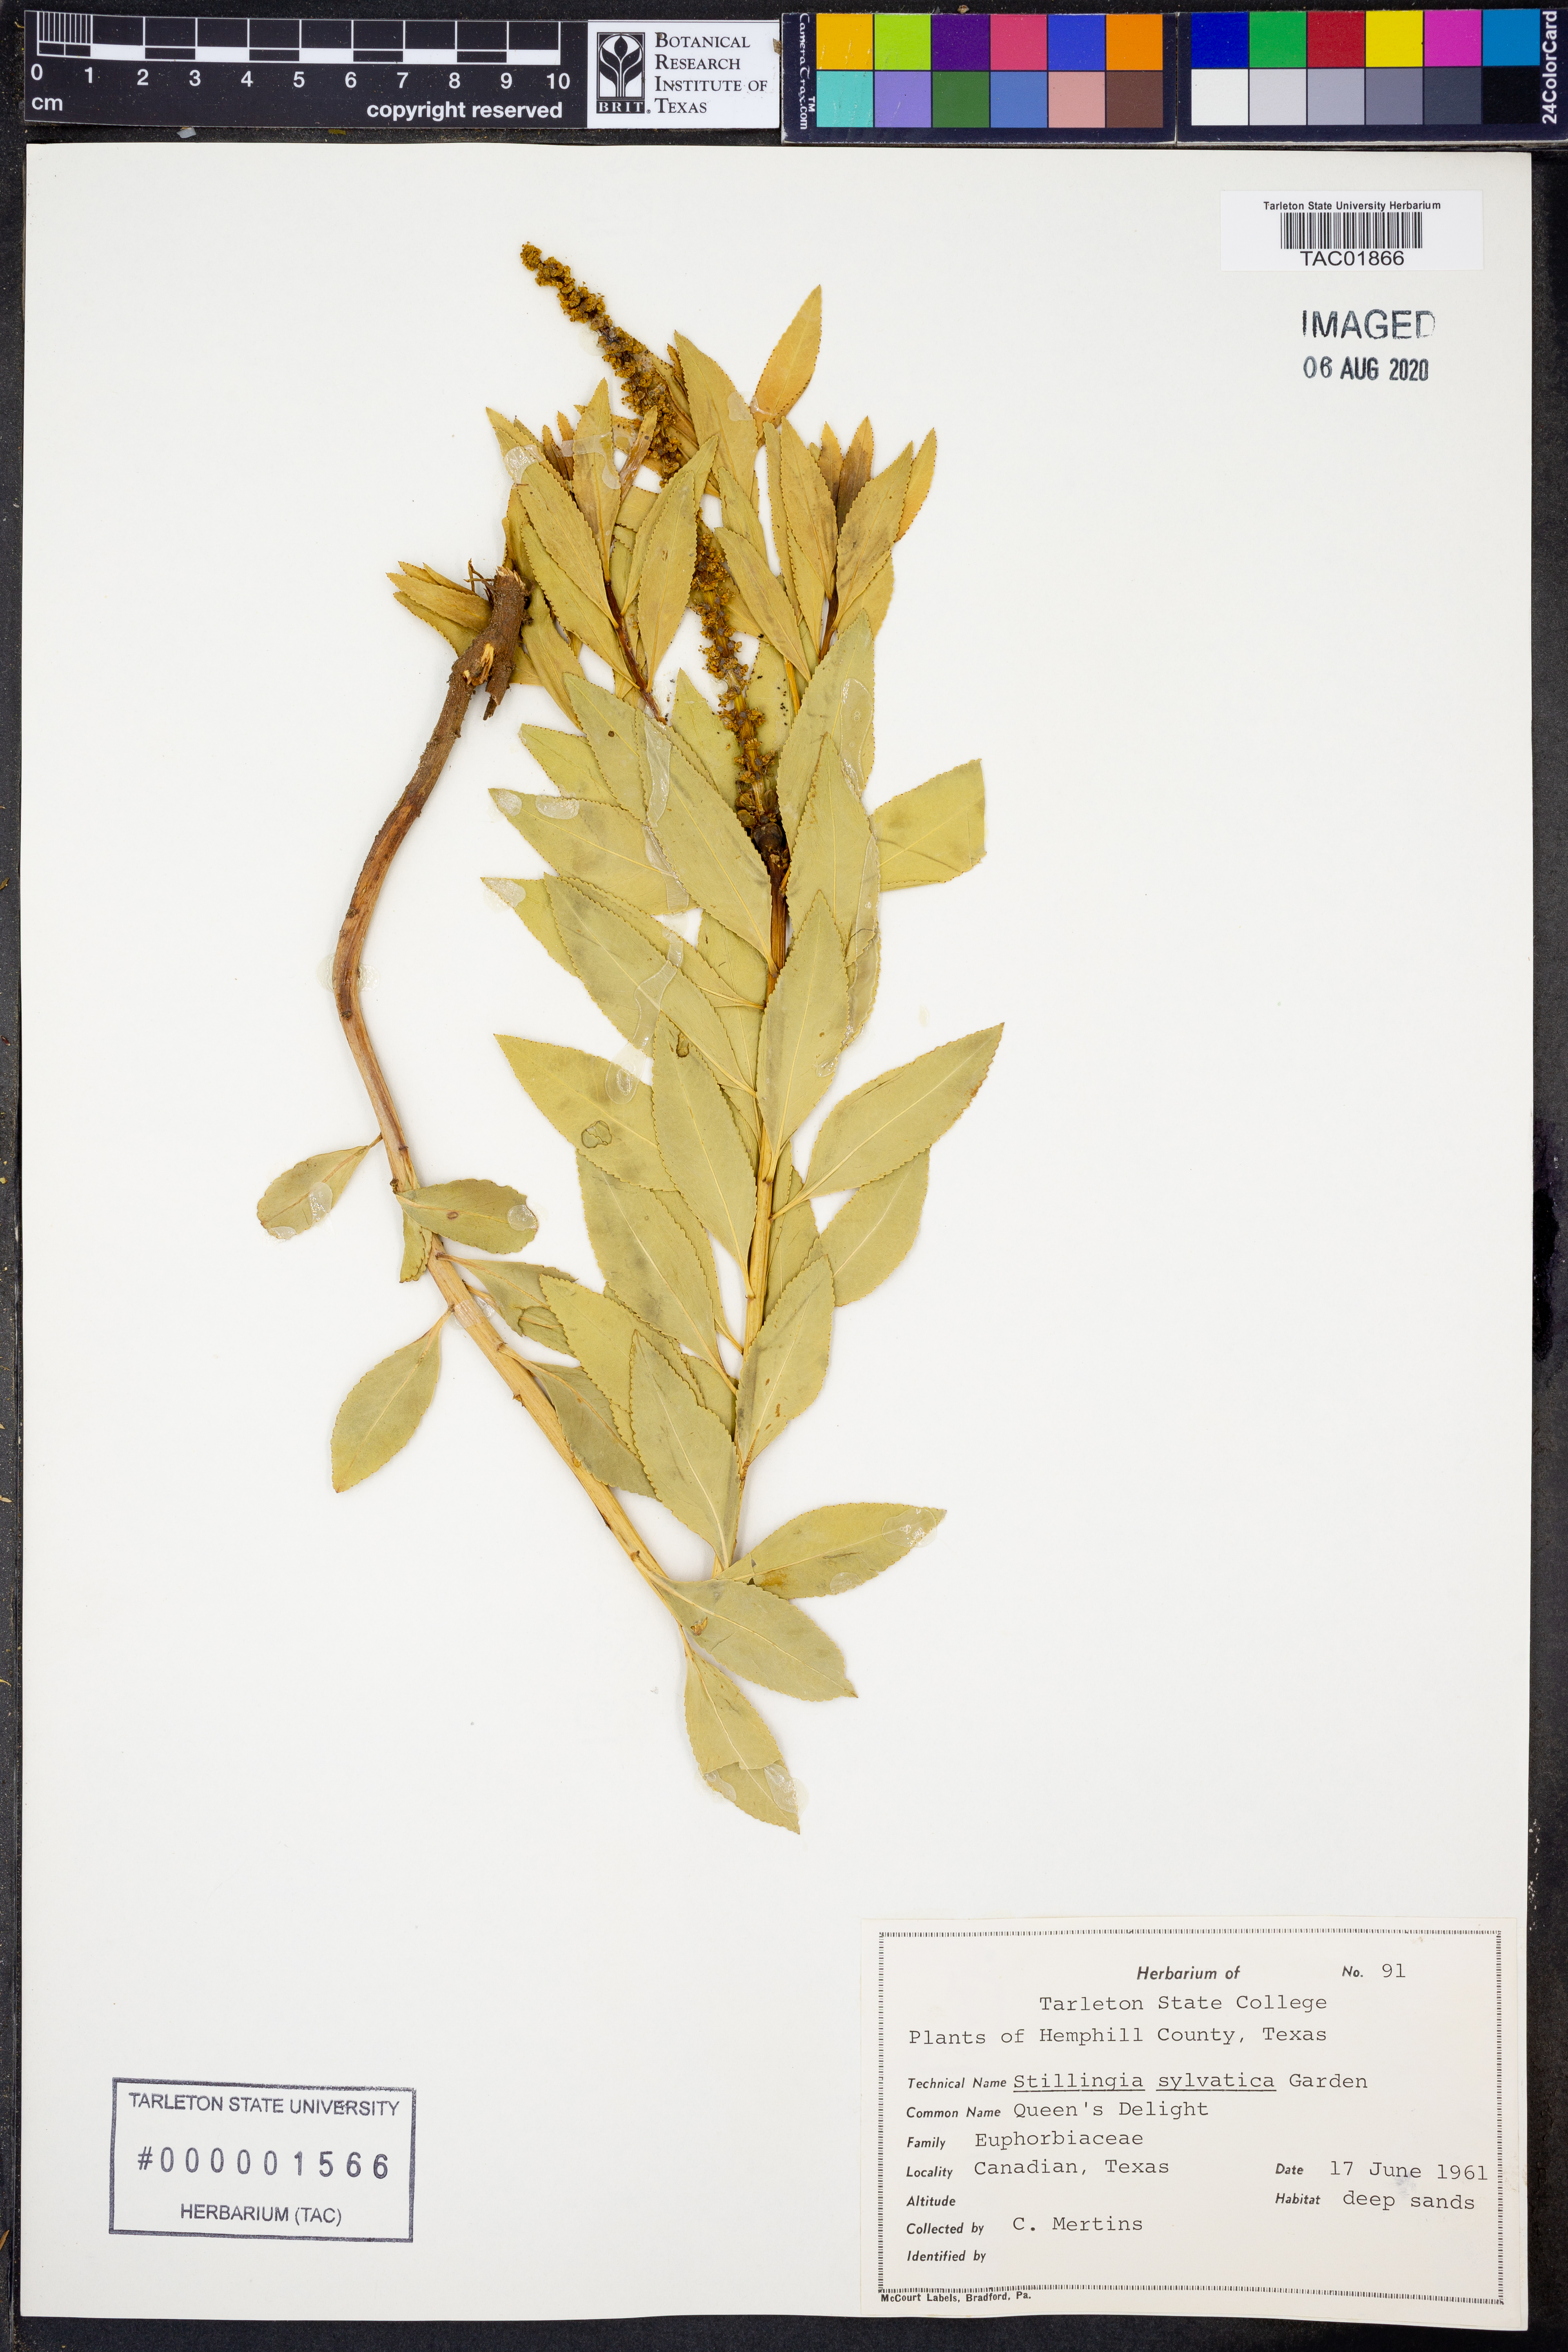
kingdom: Plantae
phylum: Tracheophyta
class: Magnoliopsida
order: Malpighiales
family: Euphorbiaceae
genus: Stillingia
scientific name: Stillingia sylvatica
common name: Queen's-delight
